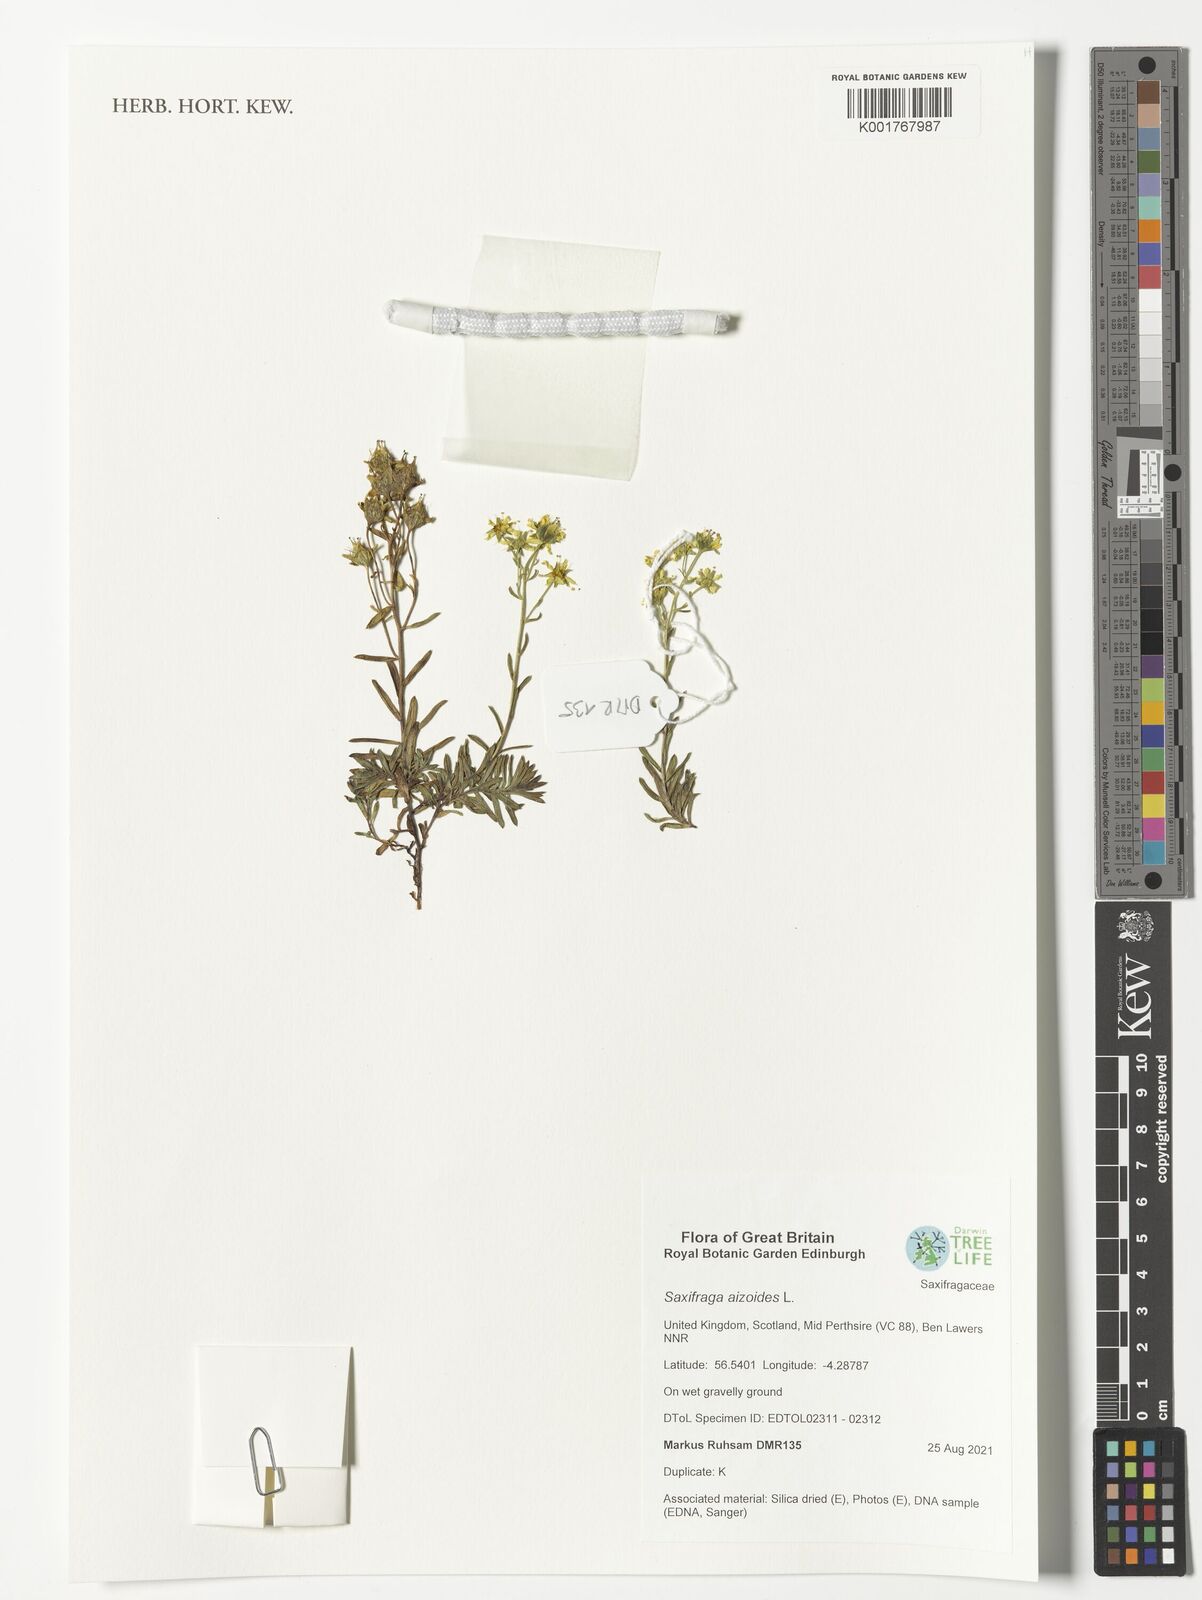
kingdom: Plantae
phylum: Tracheophyta
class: Magnoliopsida
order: Saxifragales
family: Saxifragaceae
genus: Saxifraga
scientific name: Saxifraga aizoides
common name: Yellow mountain saxifrage
